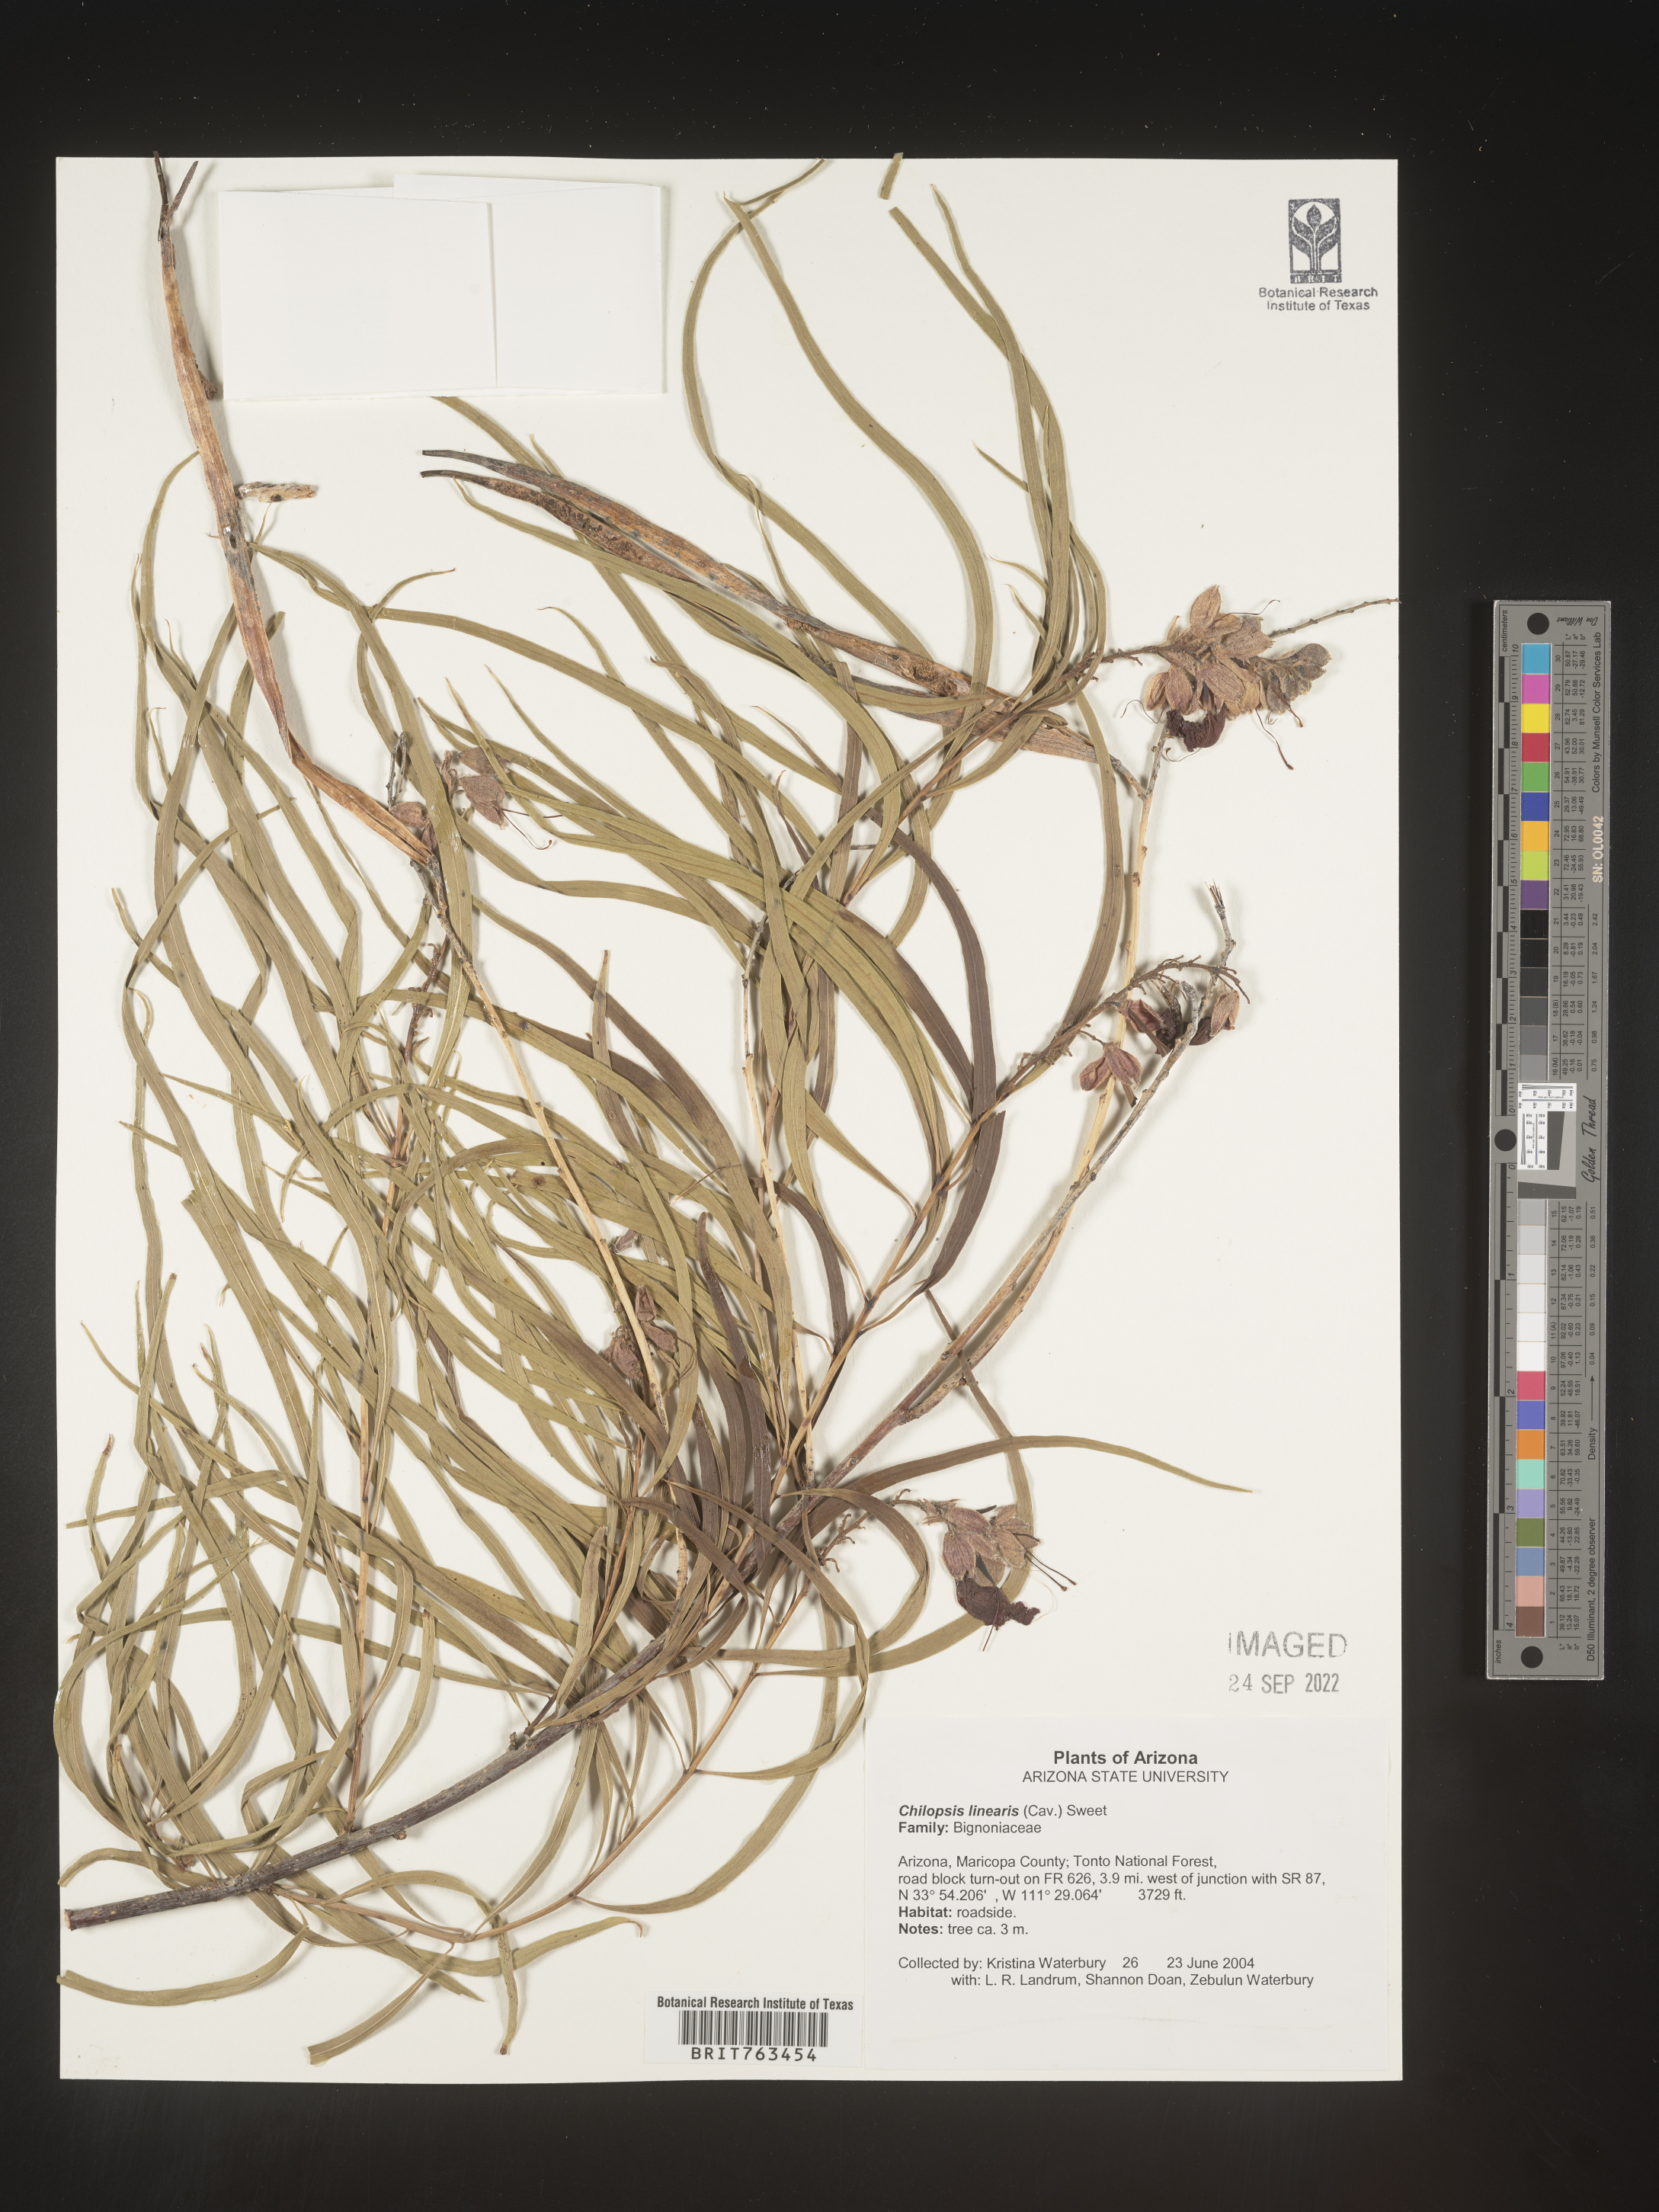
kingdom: Plantae
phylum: Tracheophyta
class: Magnoliopsida
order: Lamiales
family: Bignoniaceae
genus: Chilopsis
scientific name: Chilopsis linearis
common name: Desert-willow
